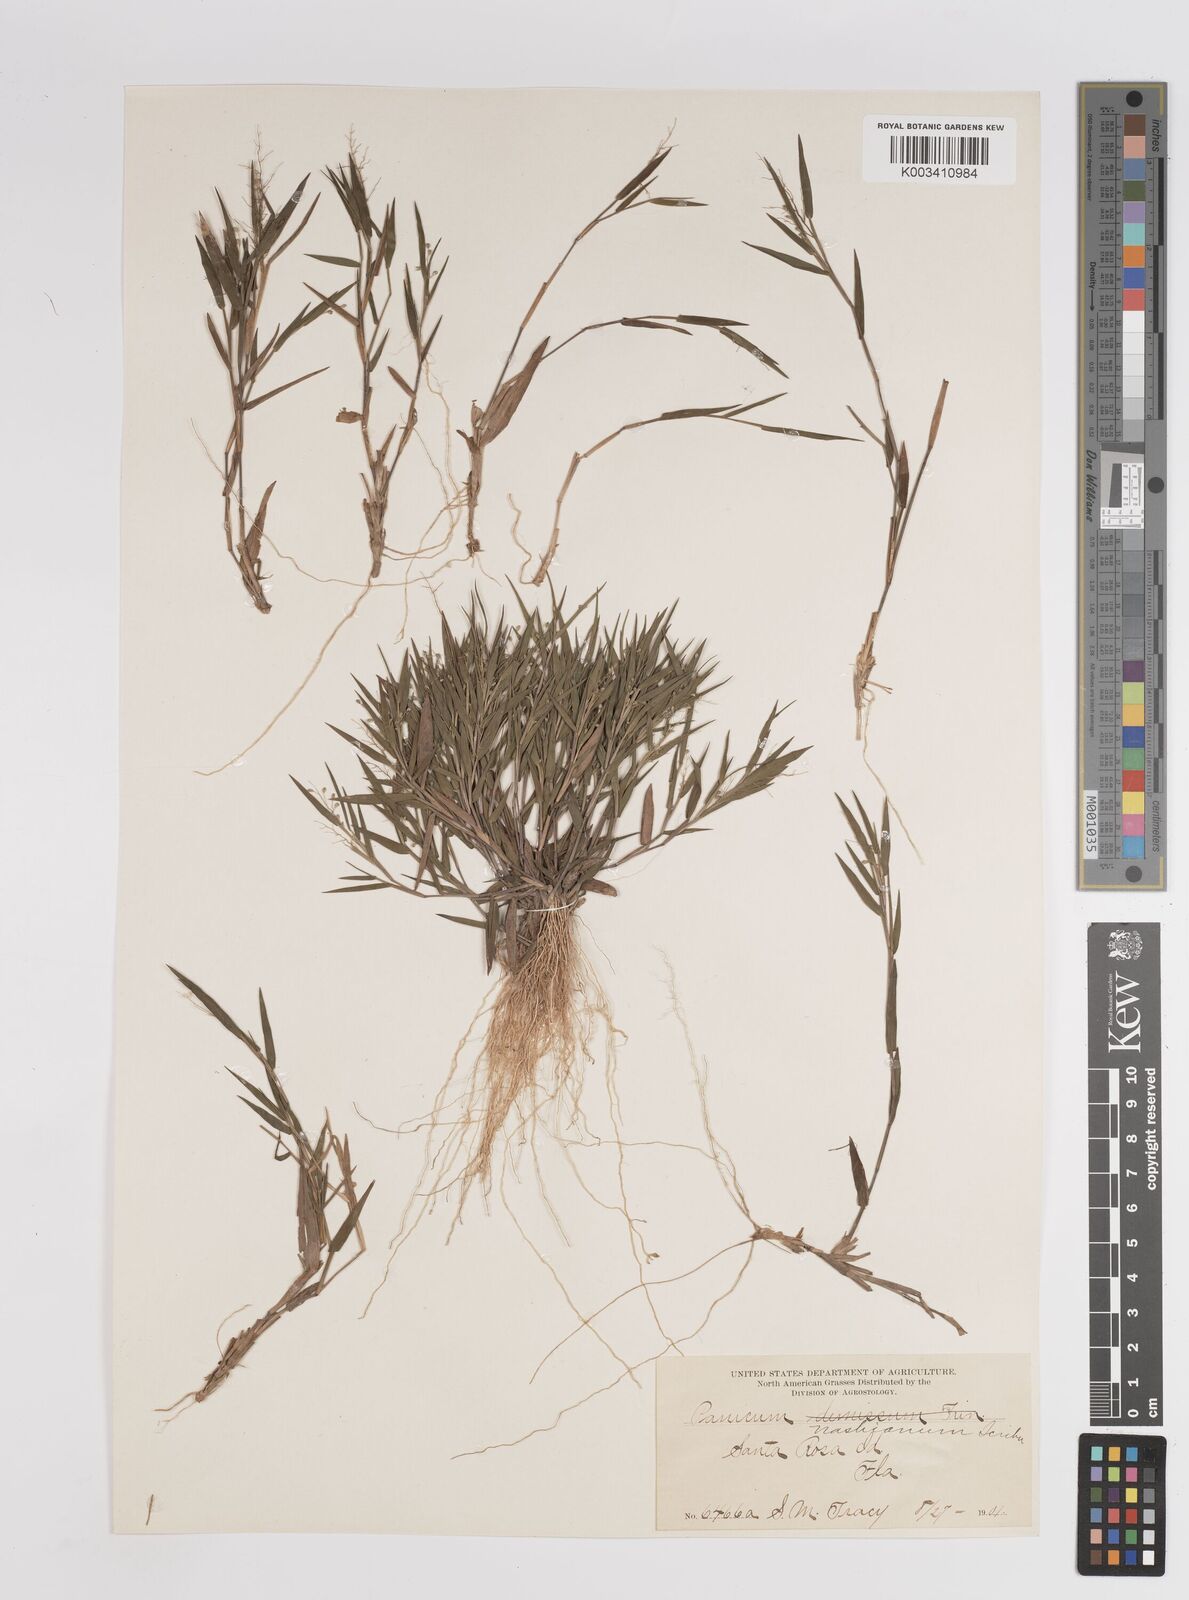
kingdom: Plantae
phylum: Tracheophyta
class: Liliopsida
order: Poales
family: Poaceae
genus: Dichanthelium
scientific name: Dichanthelium portoricense
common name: American panicgrass
